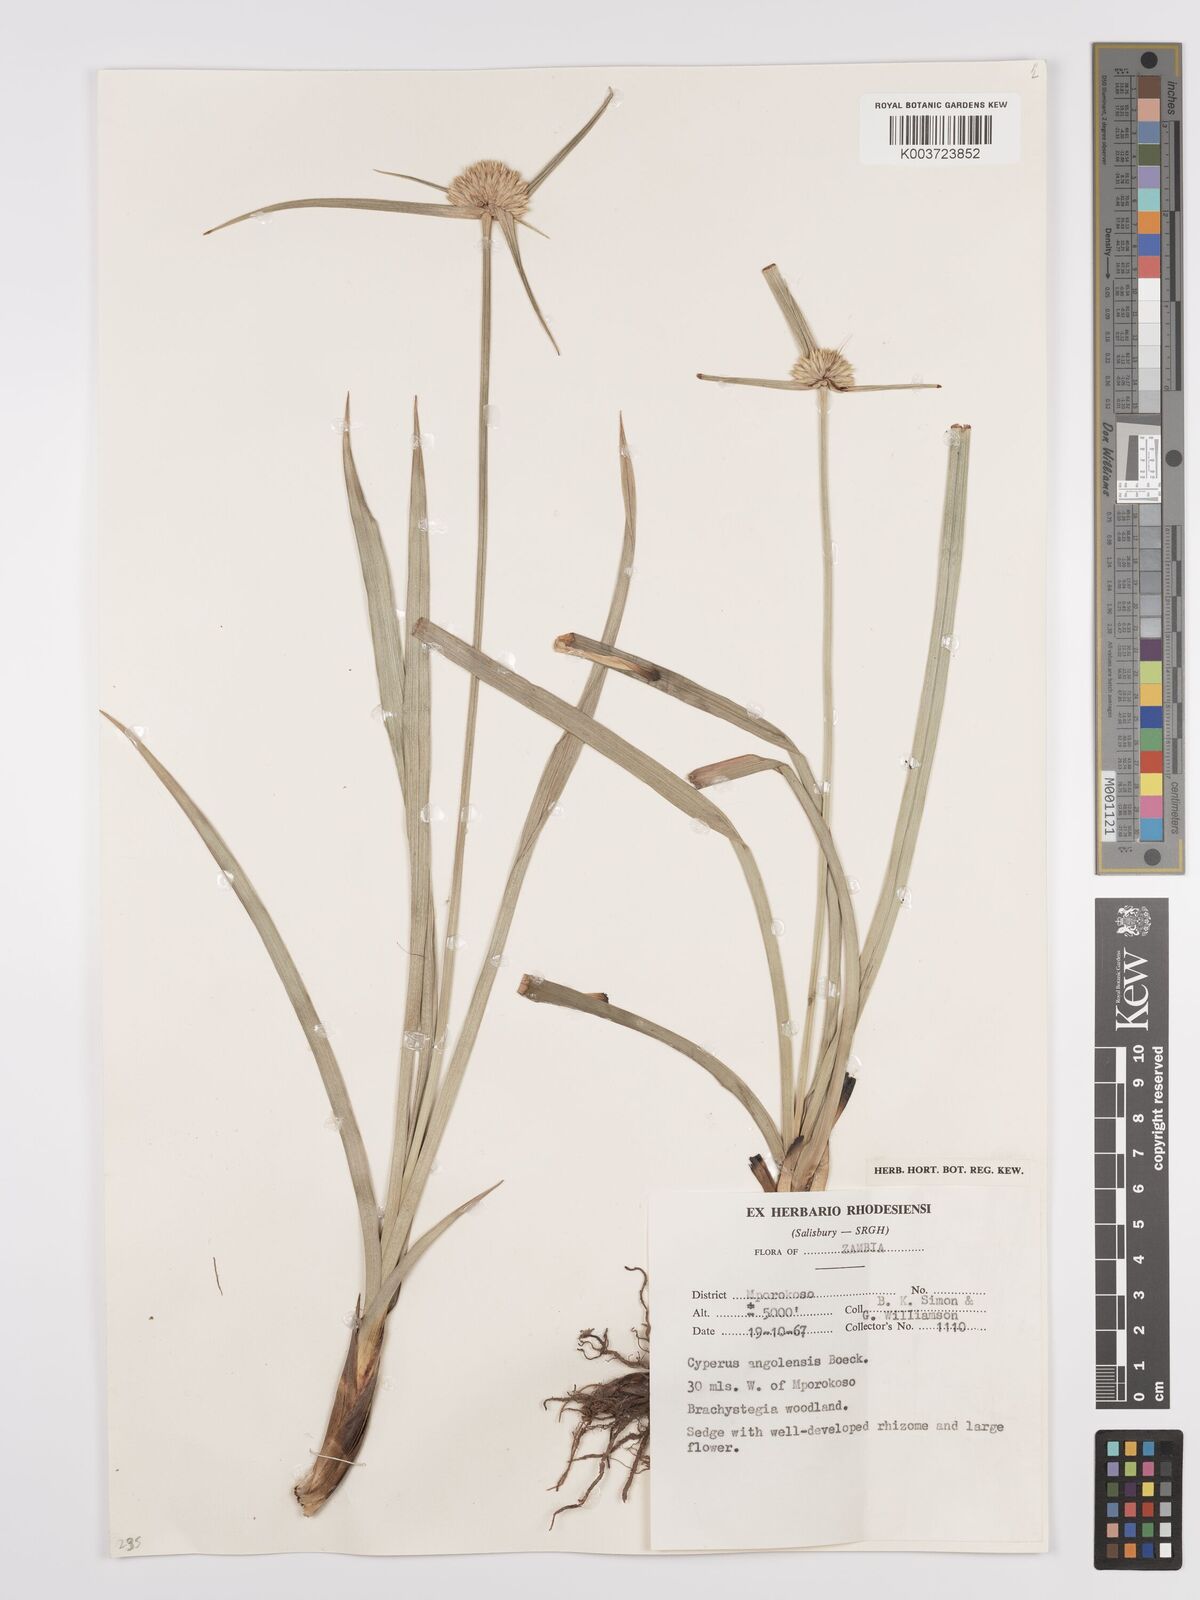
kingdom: Plantae
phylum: Tracheophyta
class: Liliopsida
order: Poales
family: Cyperaceae
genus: Cyperus
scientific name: Cyperus angolensis
